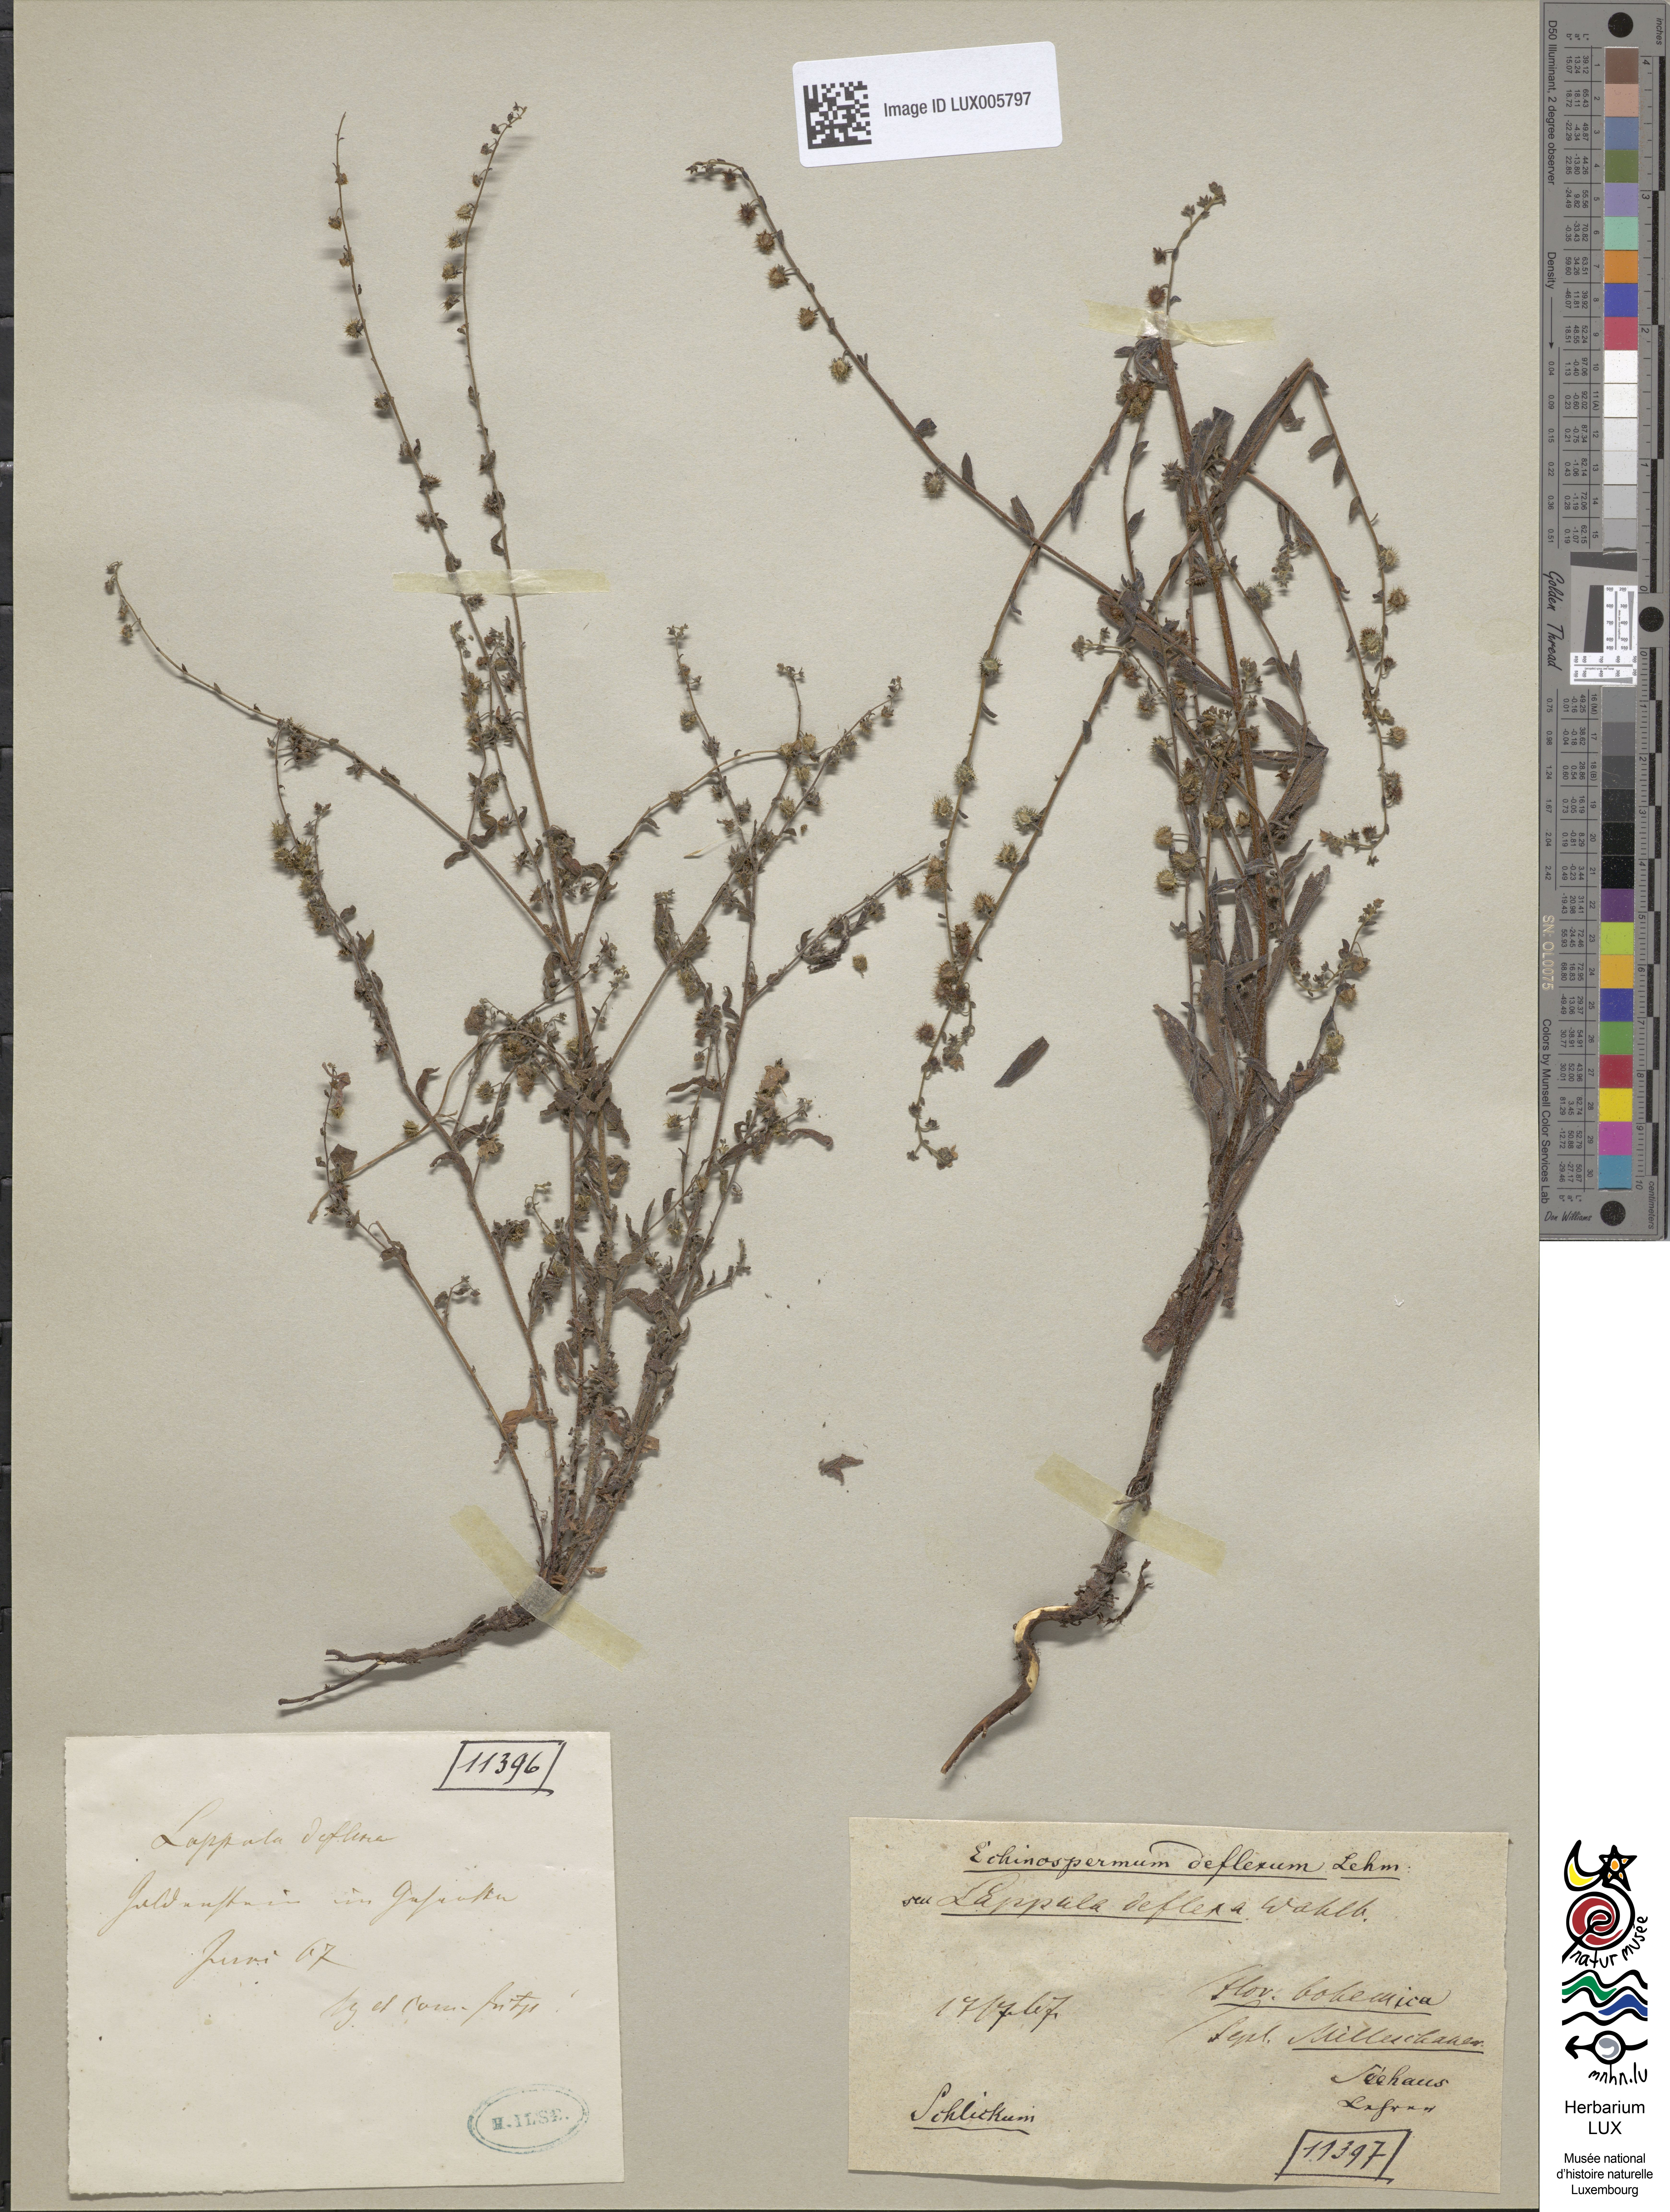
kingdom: Plantae
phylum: Tracheophyta
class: Magnoliopsida
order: Boraginales
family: Boraginaceae
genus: Hackelia
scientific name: Hackelia deflexa
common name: Nodding stickseed
